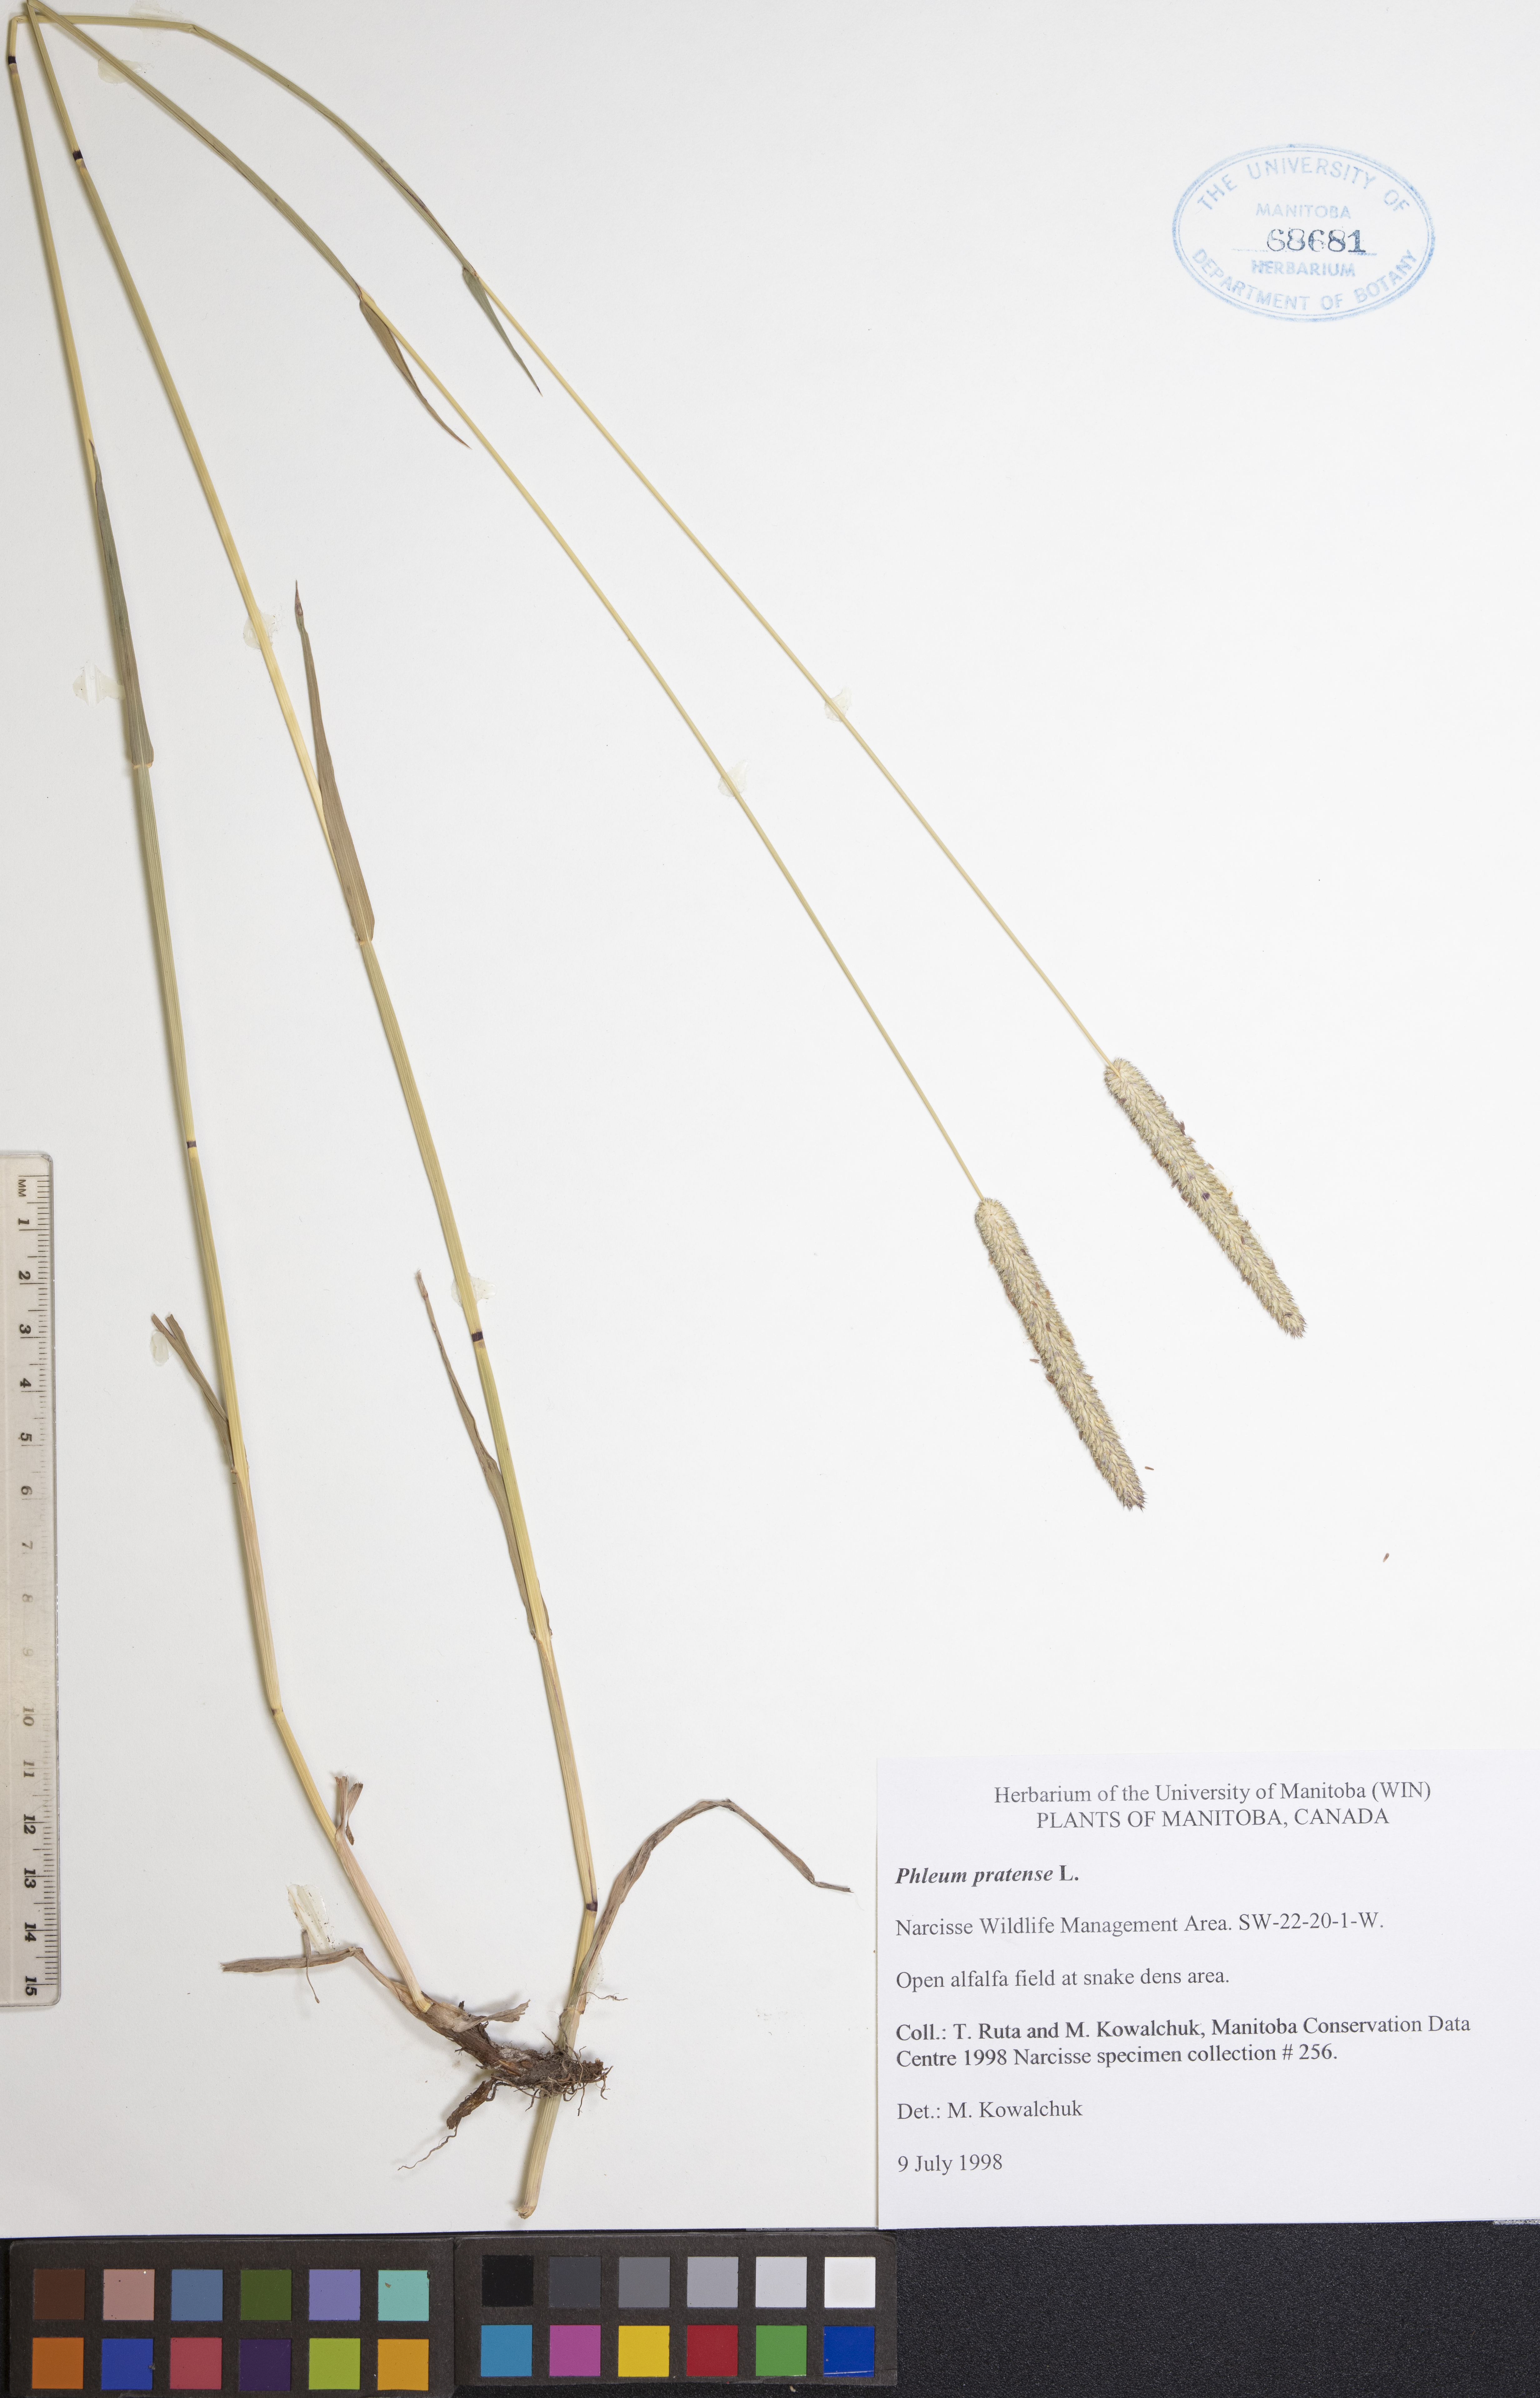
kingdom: Plantae
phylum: Tracheophyta
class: Liliopsida
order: Poales
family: Poaceae
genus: Phleum
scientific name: Phleum pratense
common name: Timothy grass
